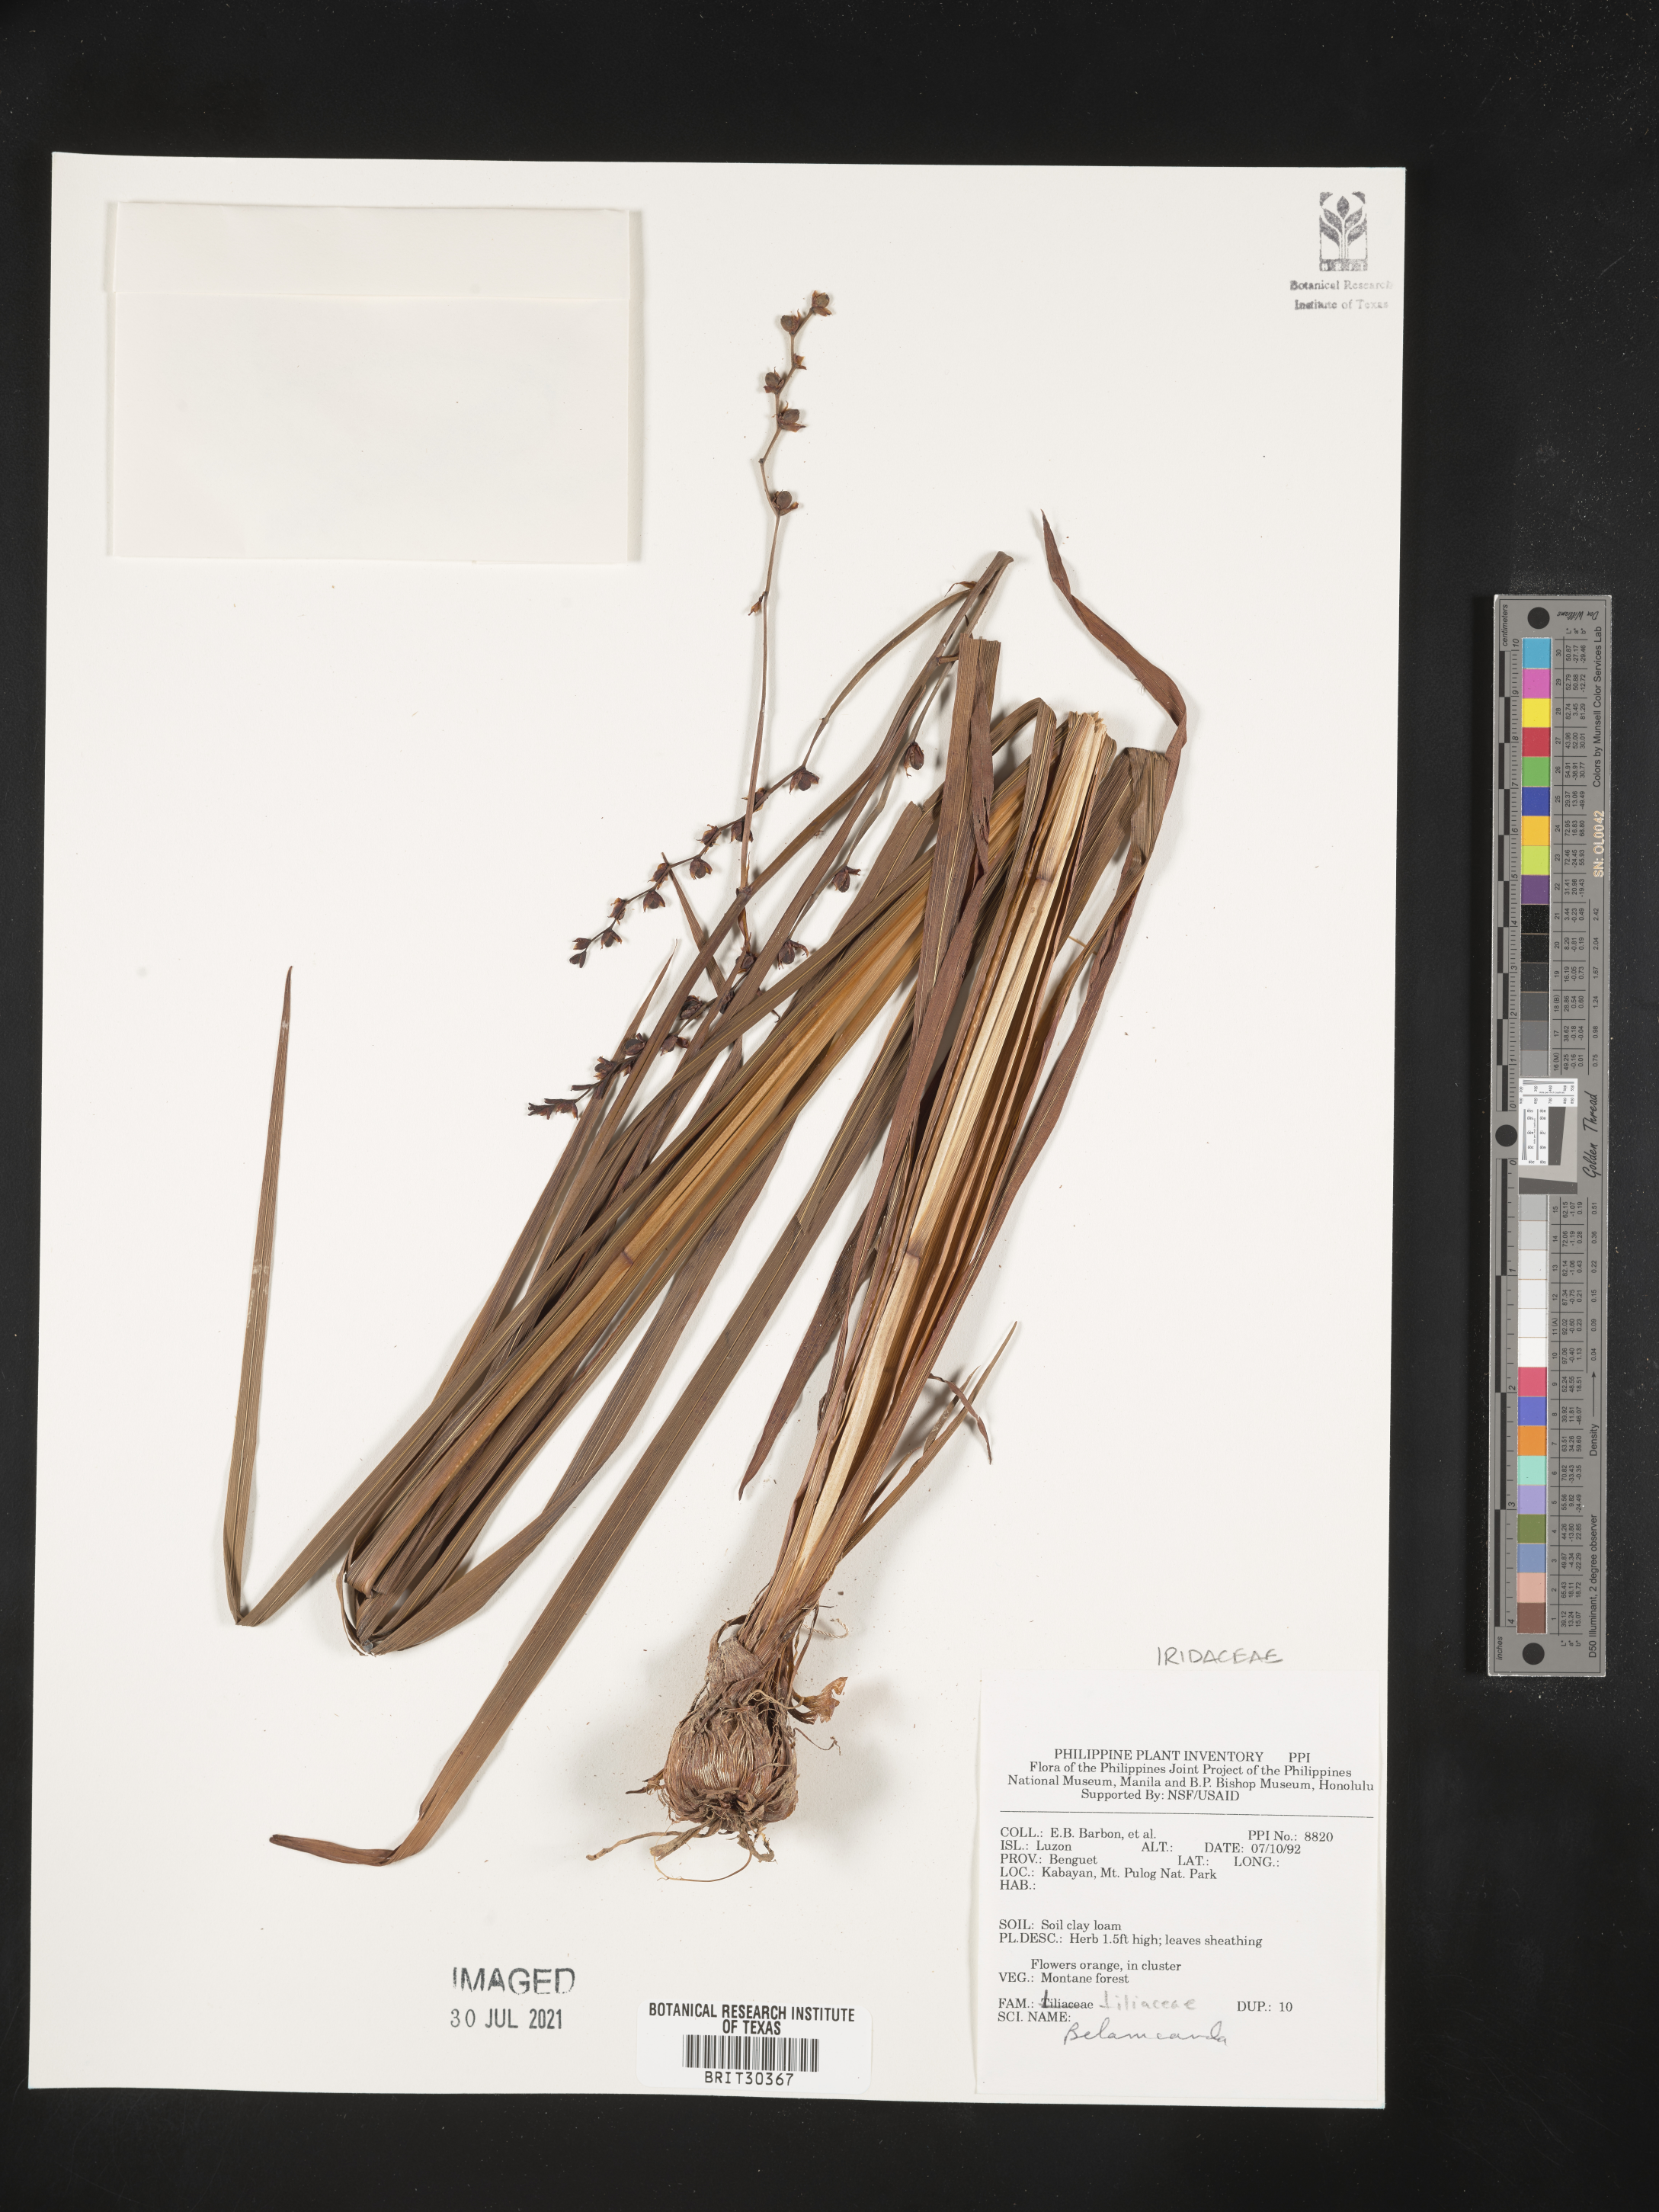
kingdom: Plantae
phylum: Tracheophyta
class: Liliopsida
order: Asparagales
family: Iridaceae
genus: Iris
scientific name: Iris
